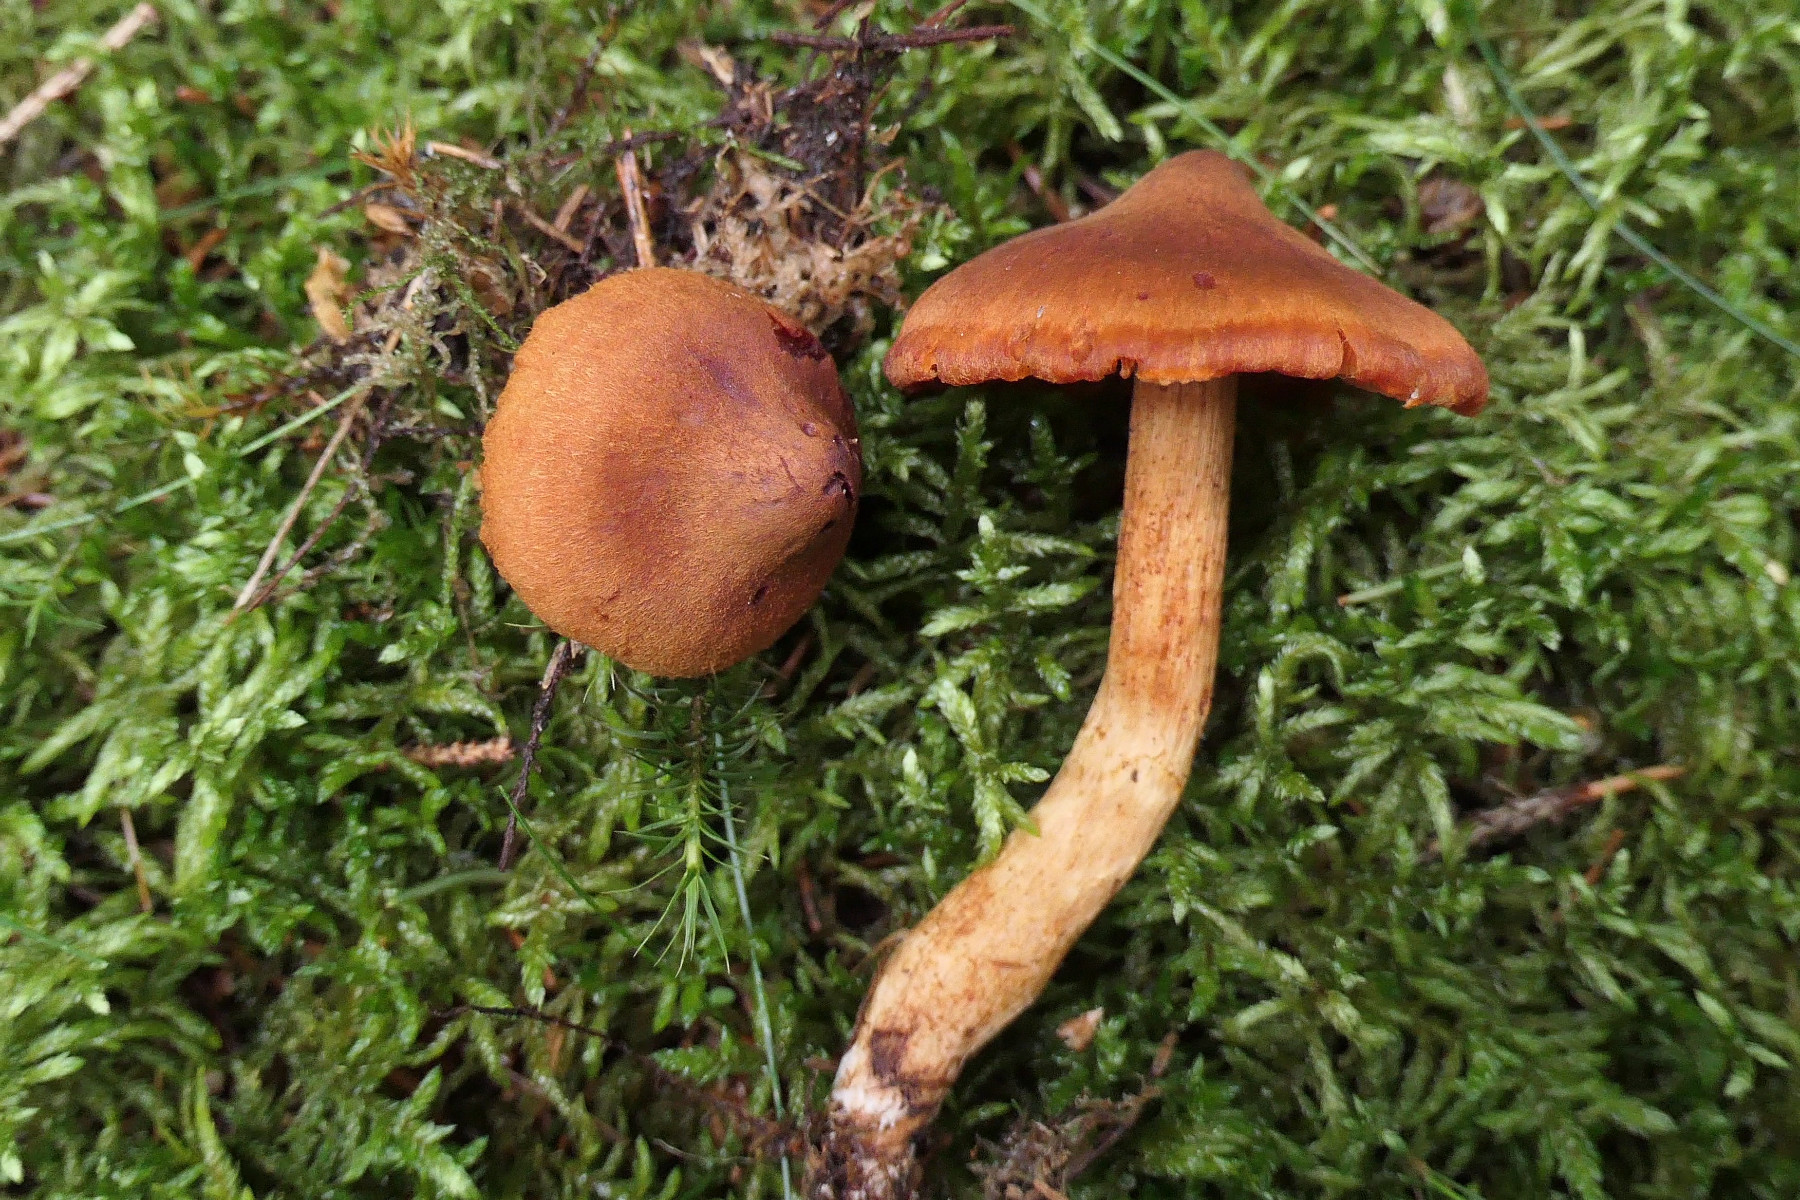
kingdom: Fungi
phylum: Basidiomycota
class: Agaricomycetes
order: Agaricales
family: Cortinariaceae
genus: Cortinarius
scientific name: Cortinarius rubellus
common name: puklet gift-slørhat
